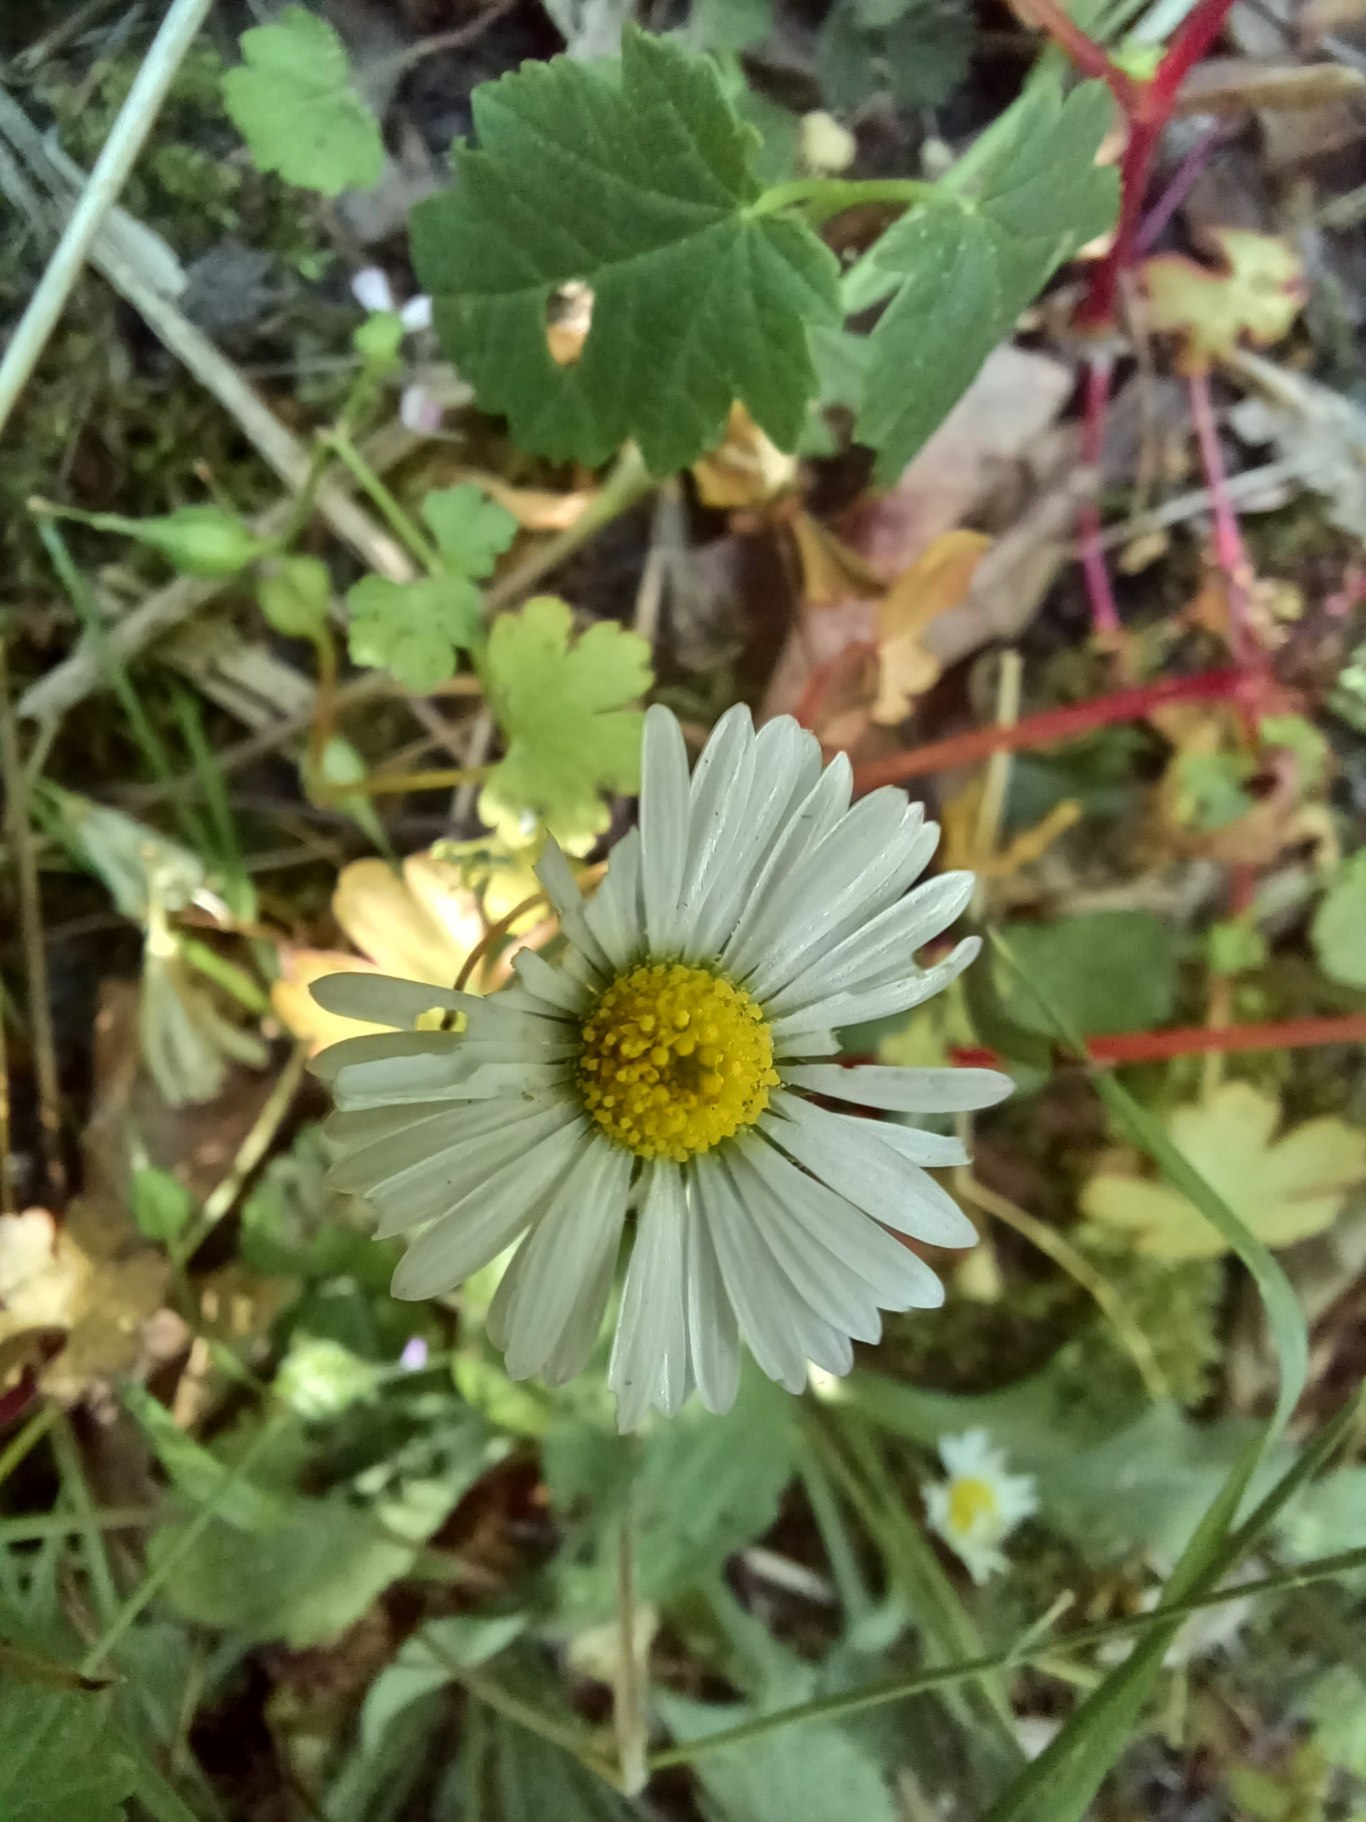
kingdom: Plantae
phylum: Tracheophyta
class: Magnoliopsida
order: Asterales
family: Asteraceae
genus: Bellis
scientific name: Bellis perennis
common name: Tusindfryd
